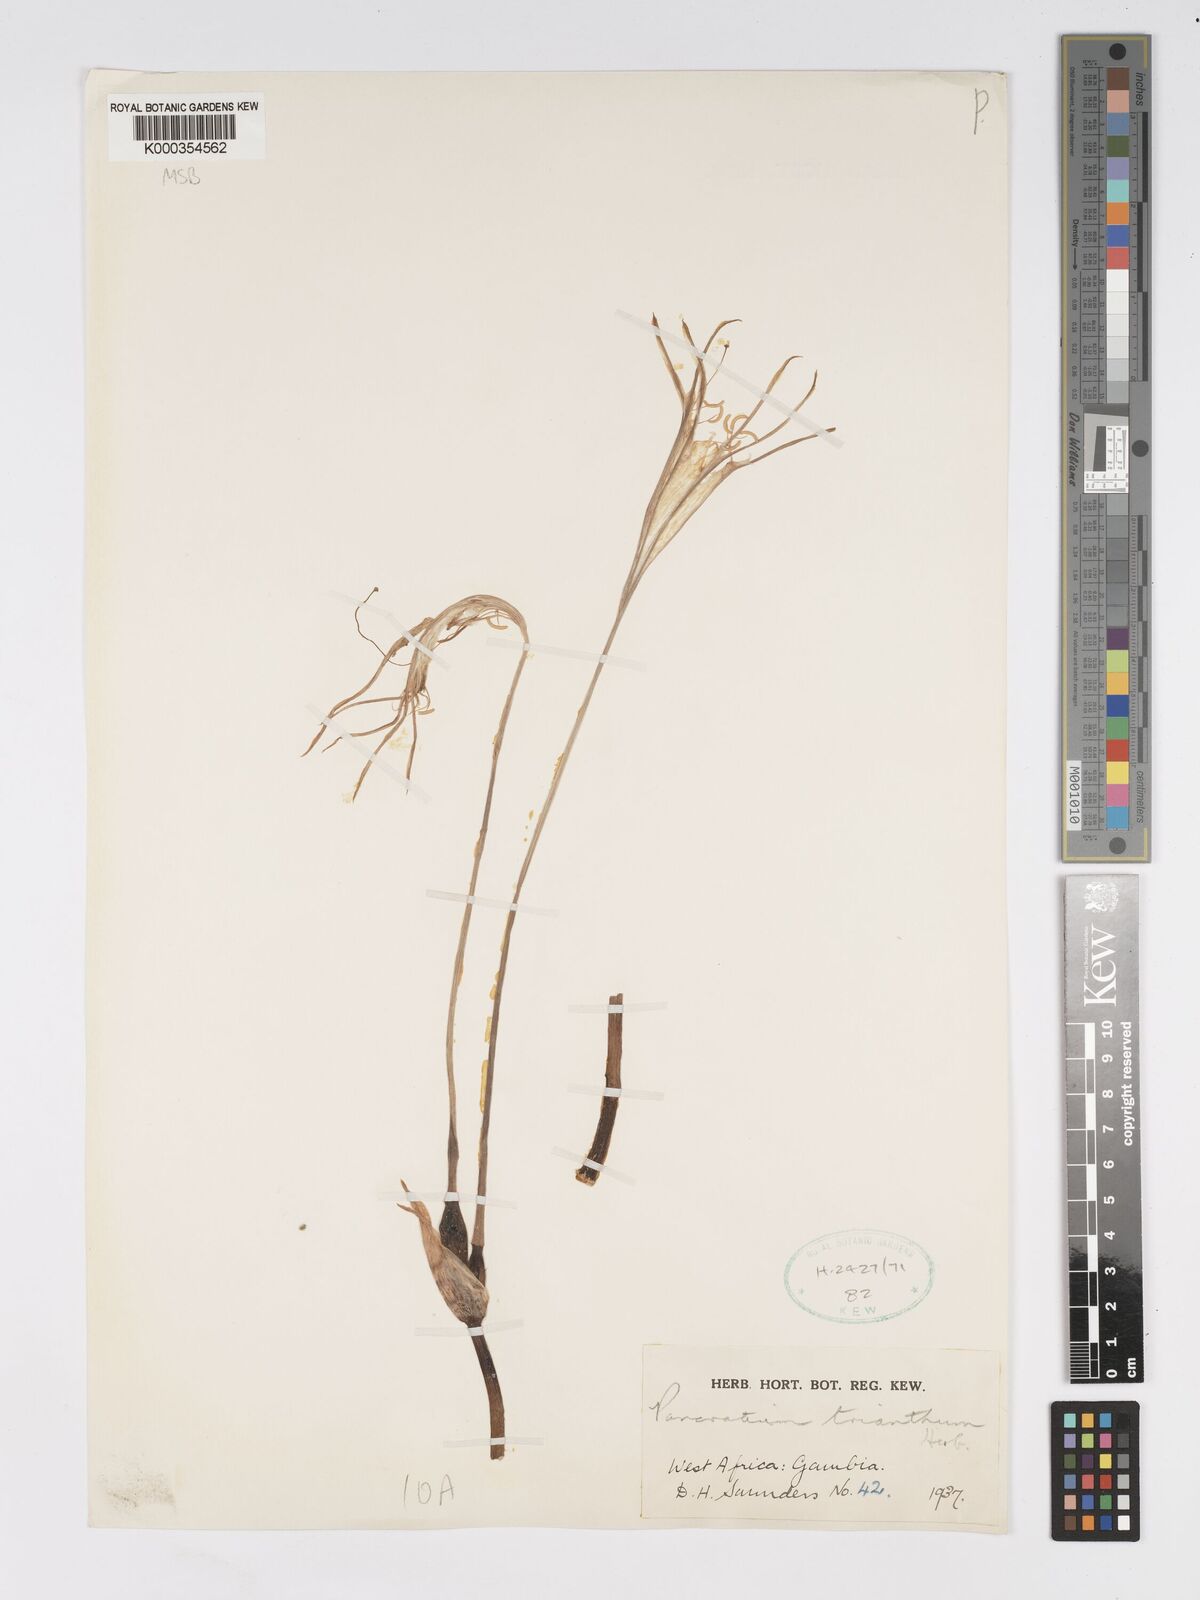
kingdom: Plantae
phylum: Tracheophyta
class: Liliopsida
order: Asparagales
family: Amaryllidaceae
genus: Pancratium
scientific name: Pancratium trianthum
